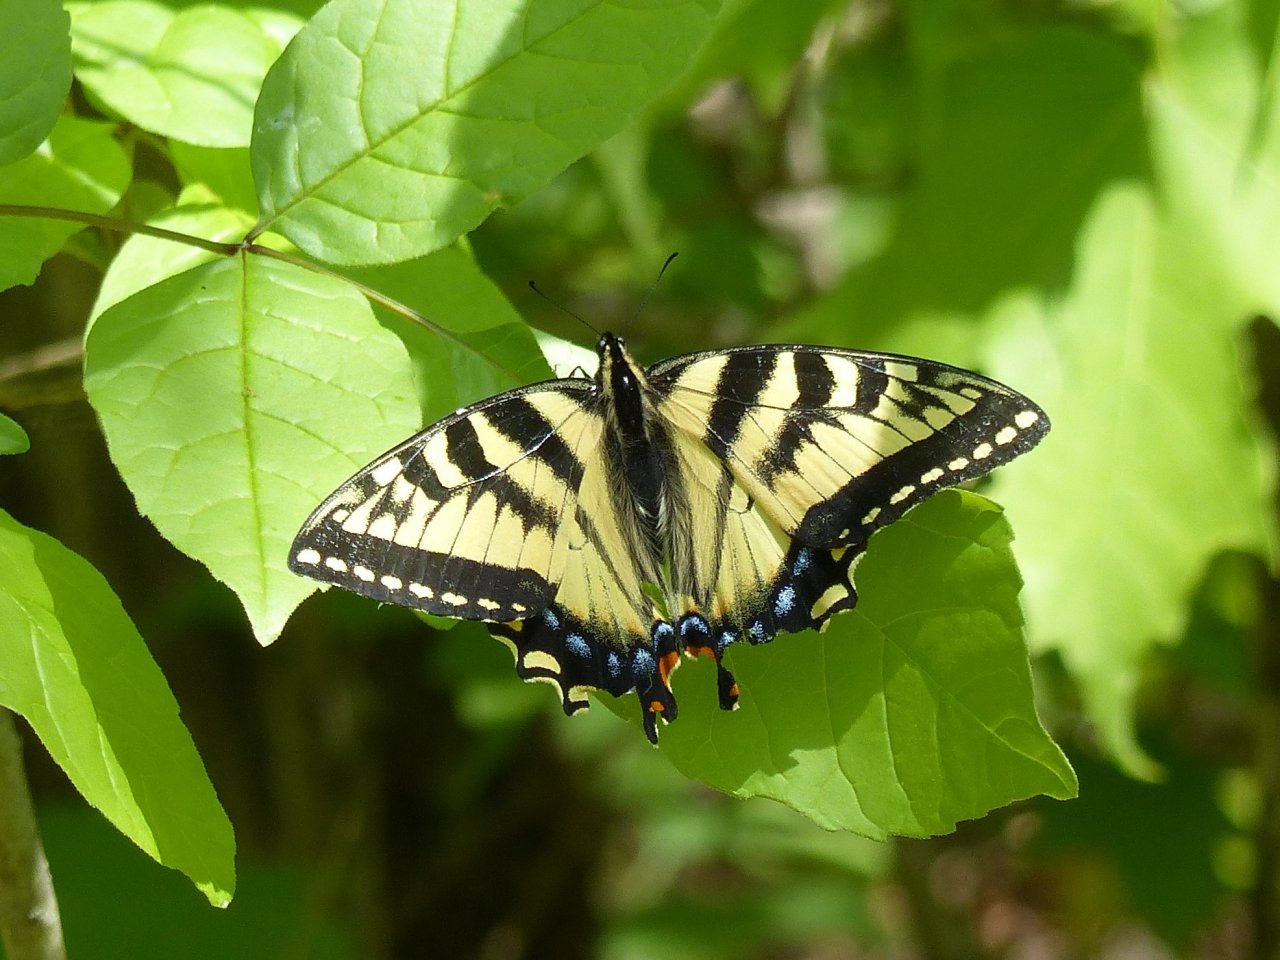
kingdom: Animalia
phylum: Arthropoda
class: Insecta
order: Lepidoptera
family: Papilionidae
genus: Pterourus
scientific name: Pterourus canadensis
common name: Canadian Tiger Swallowtail
